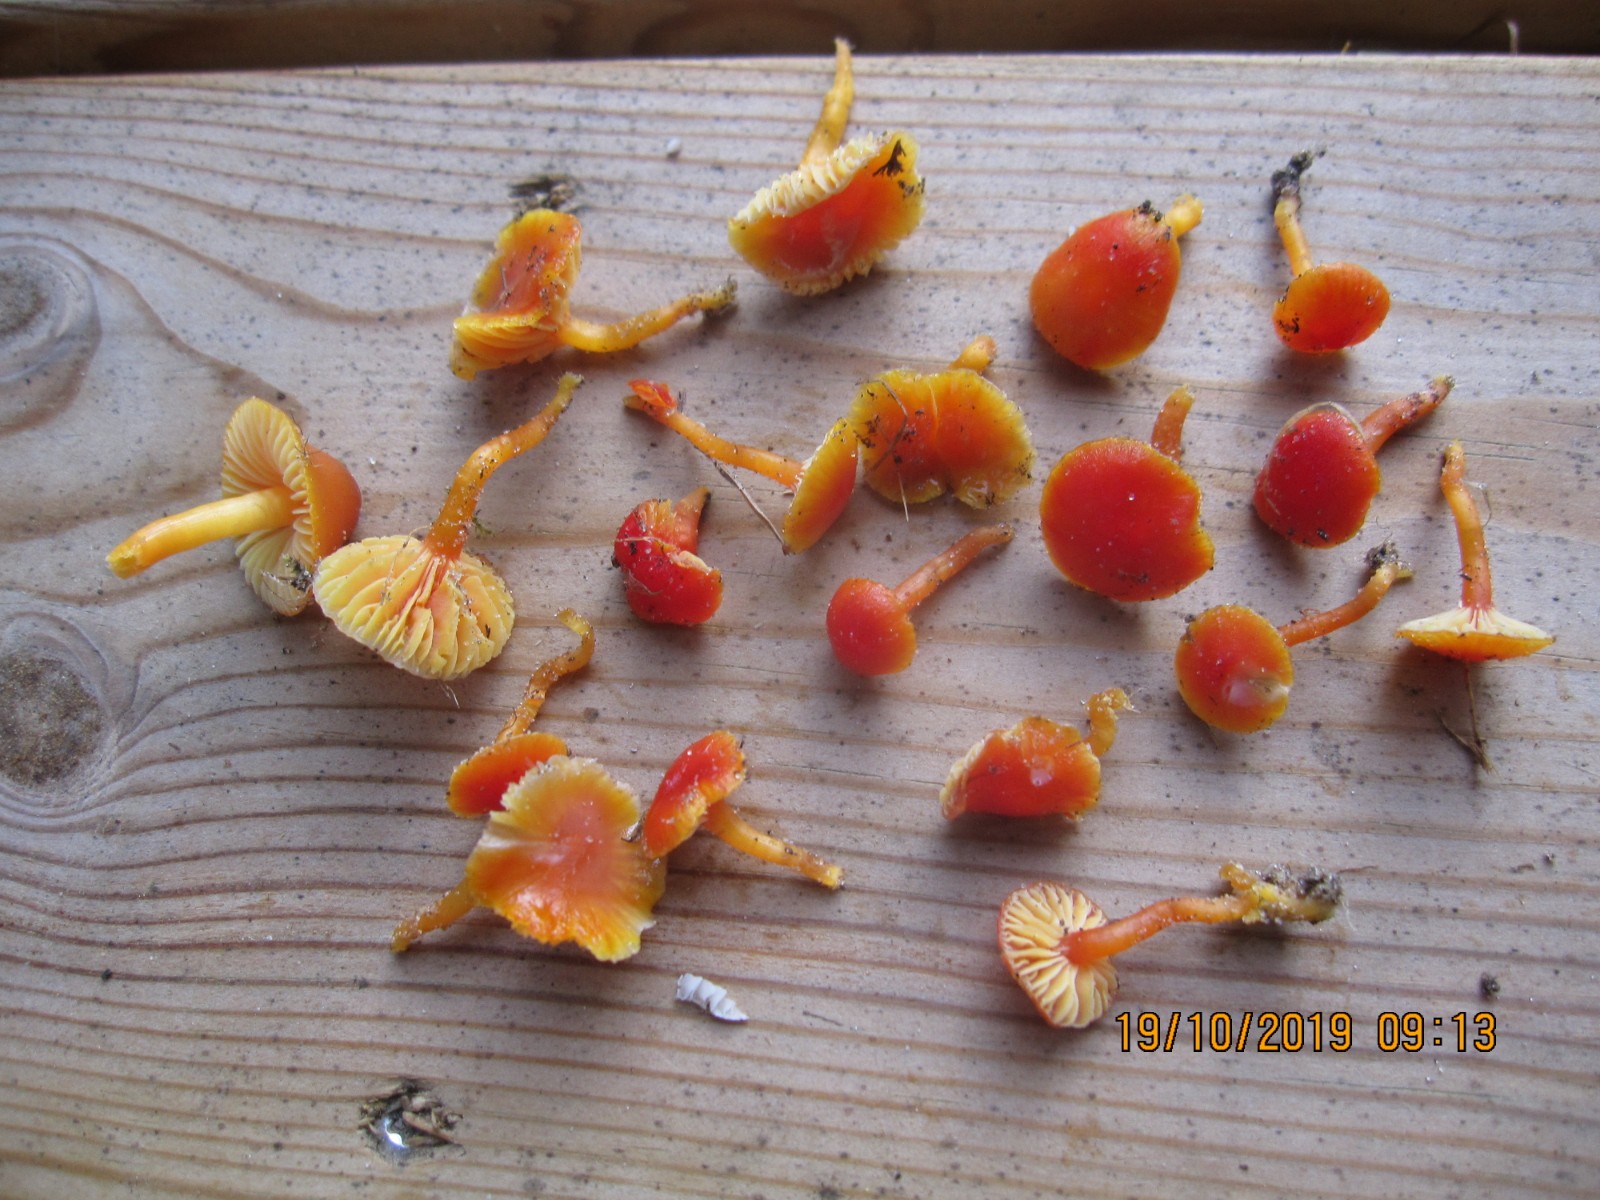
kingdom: Fungi
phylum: Basidiomycota
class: Agaricomycetes
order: Agaricales
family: Hygrophoraceae
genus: Hygrocybe
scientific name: Hygrocybe insipida
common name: liden vokshat
